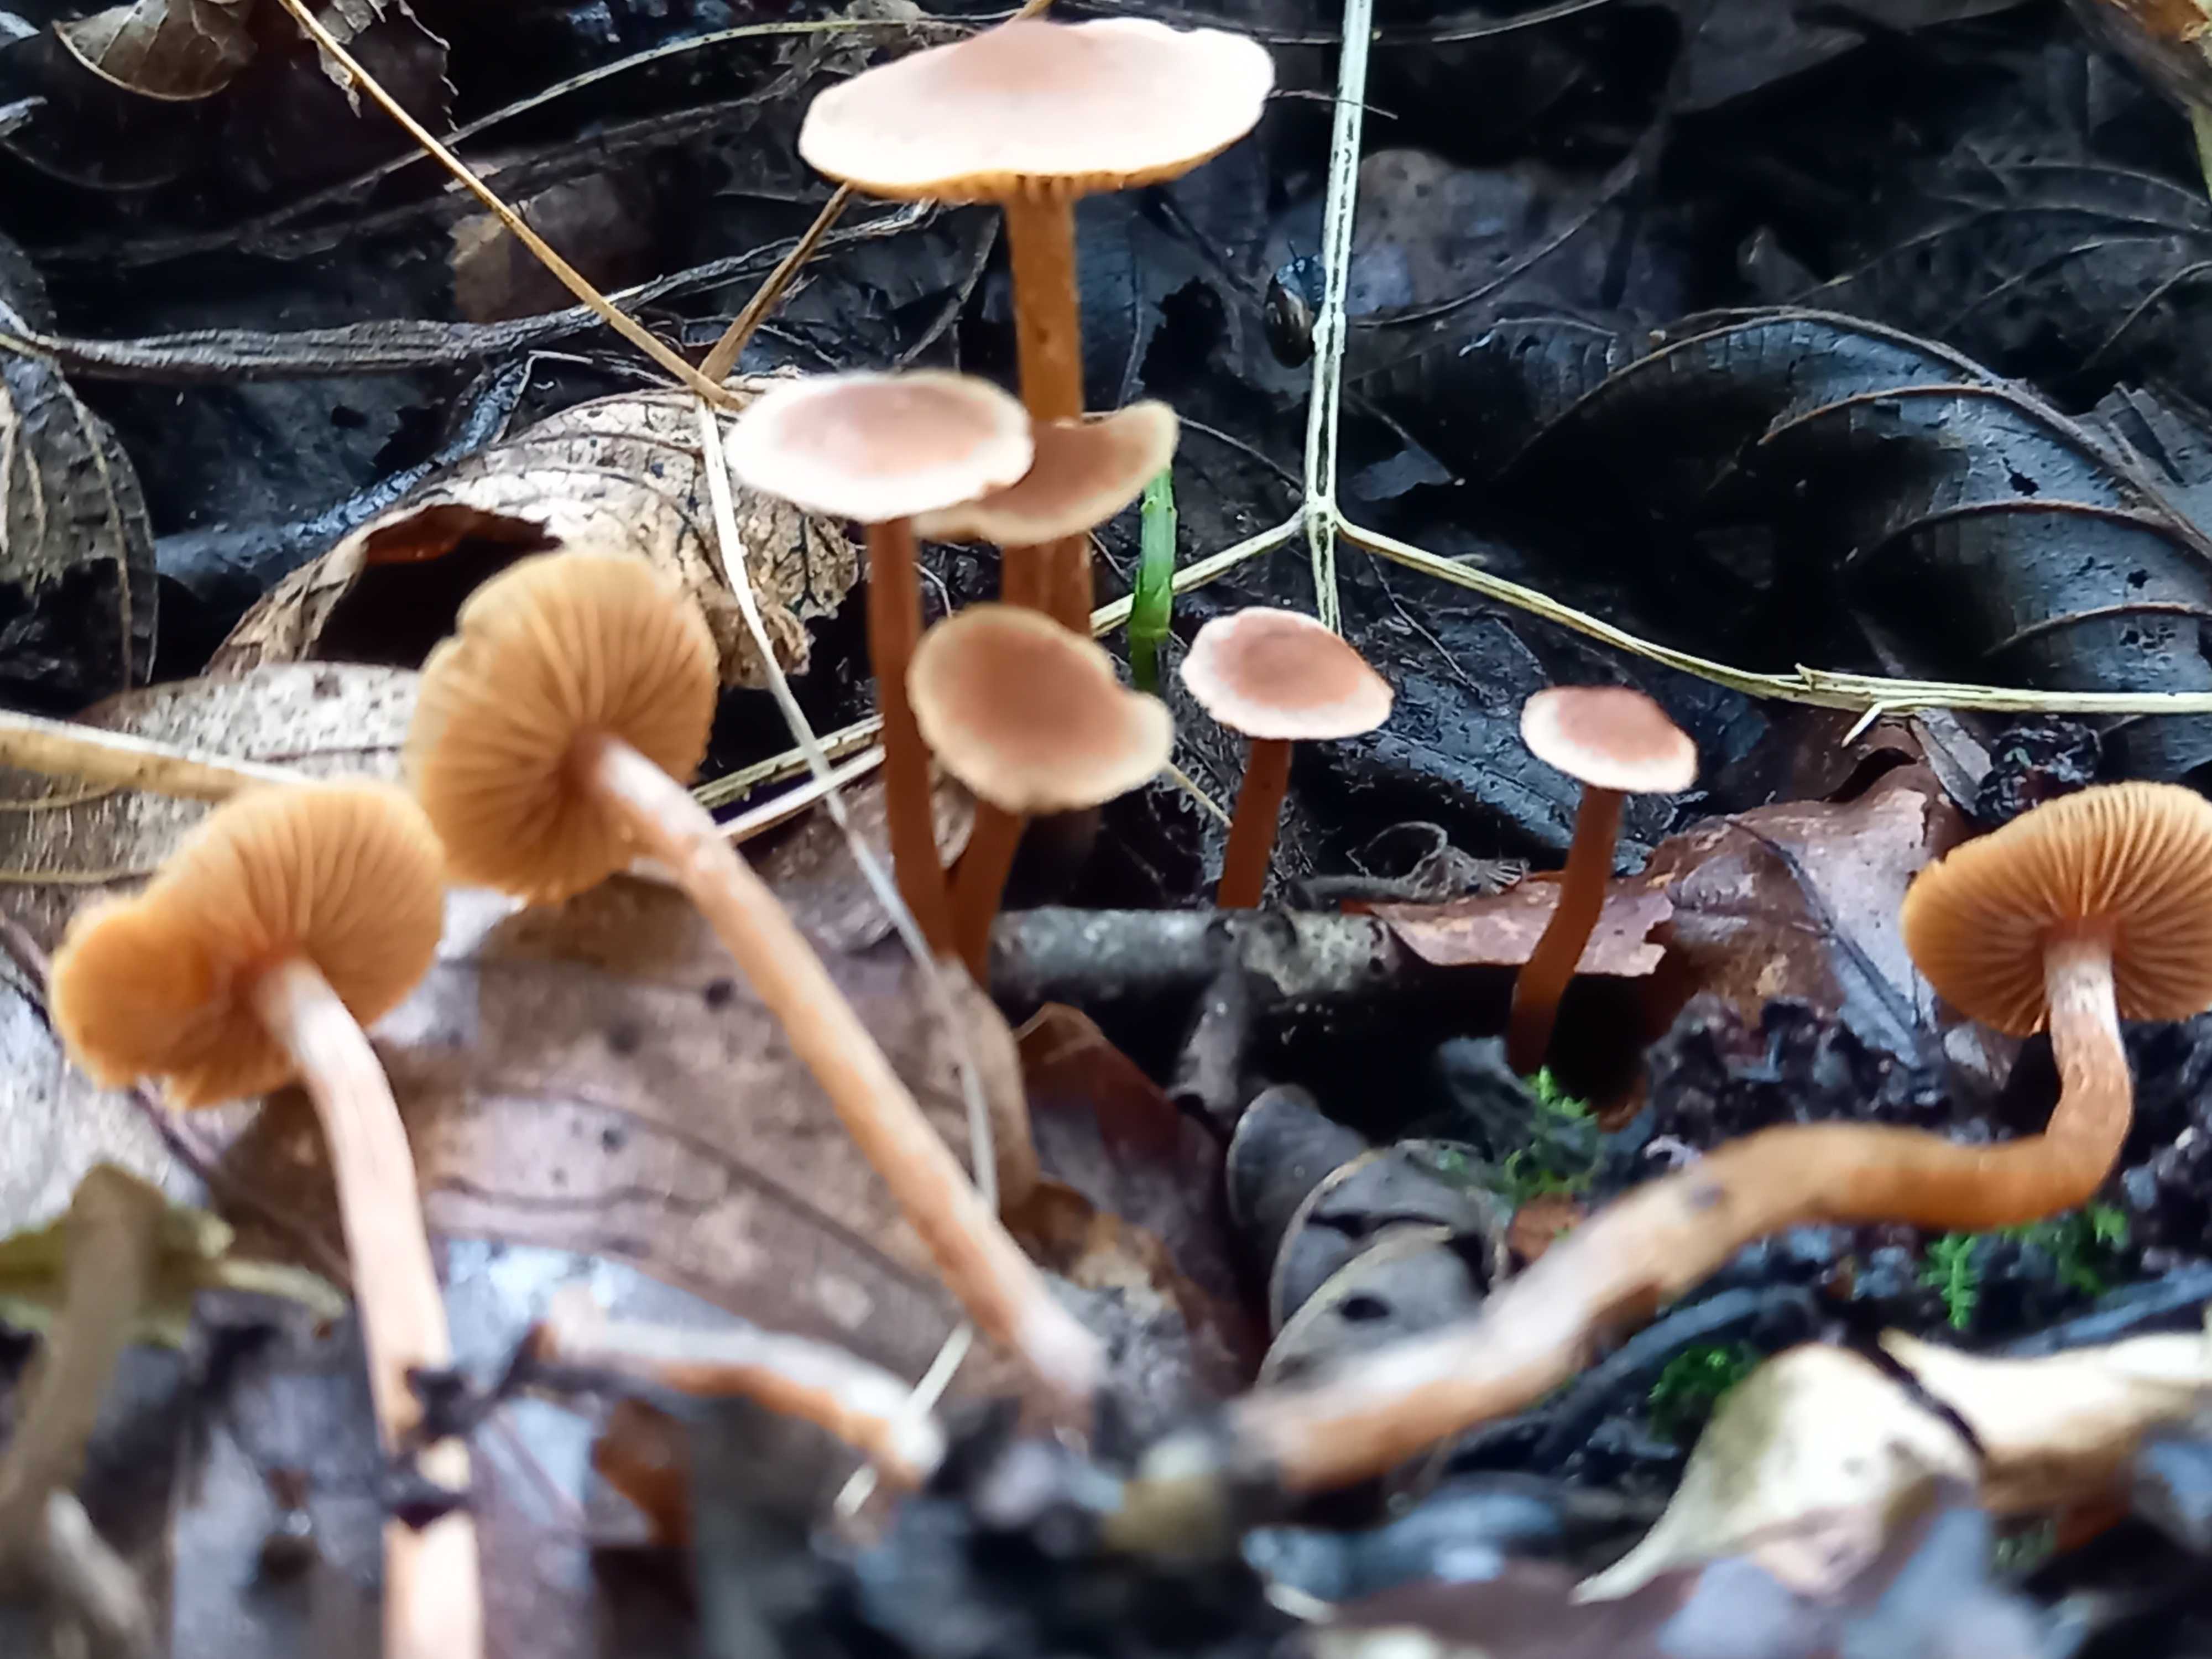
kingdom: Fungi
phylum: Basidiomycota
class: Agaricomycetes
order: Agaricales
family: Hymenogastraceae
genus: Naucoria
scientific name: Naucoria scolecina
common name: mørk elle-knaphat
